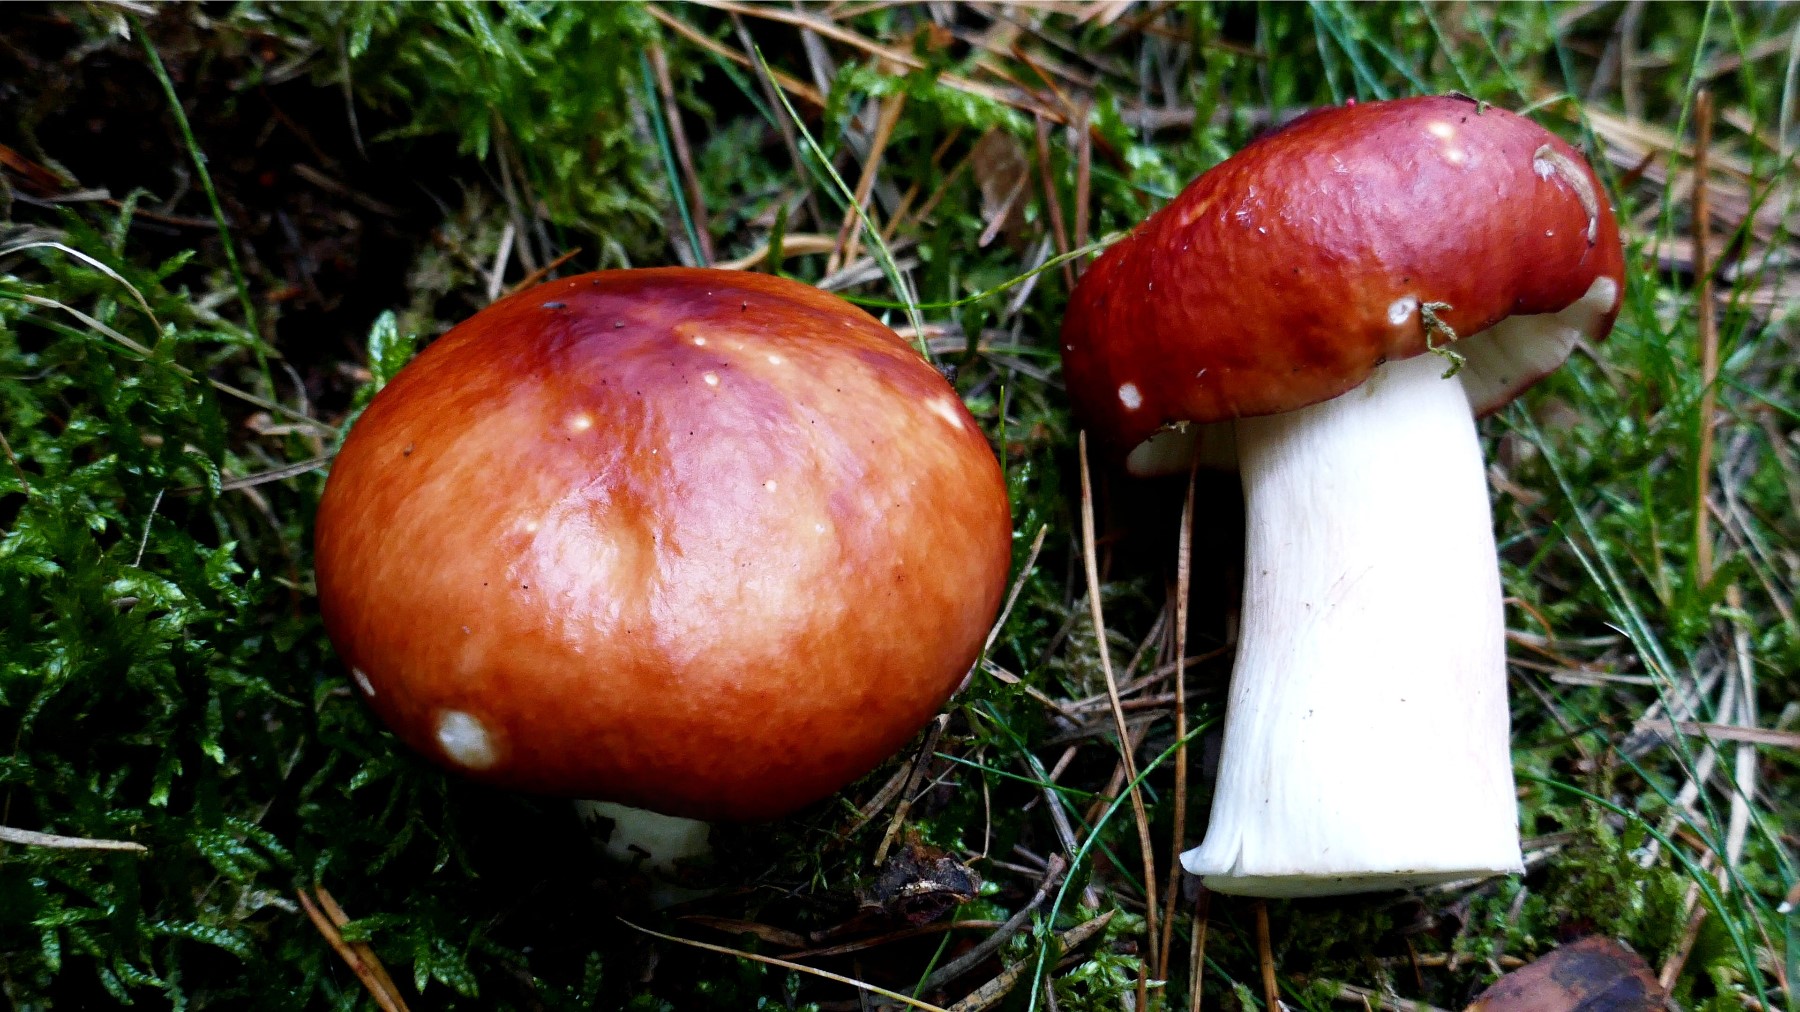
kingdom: Fungi
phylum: Basidiomycota
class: Agaricomycetes
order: Russulales
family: Russulaceae
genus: Russula
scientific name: Russula paludosa
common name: prægtig skørhat
